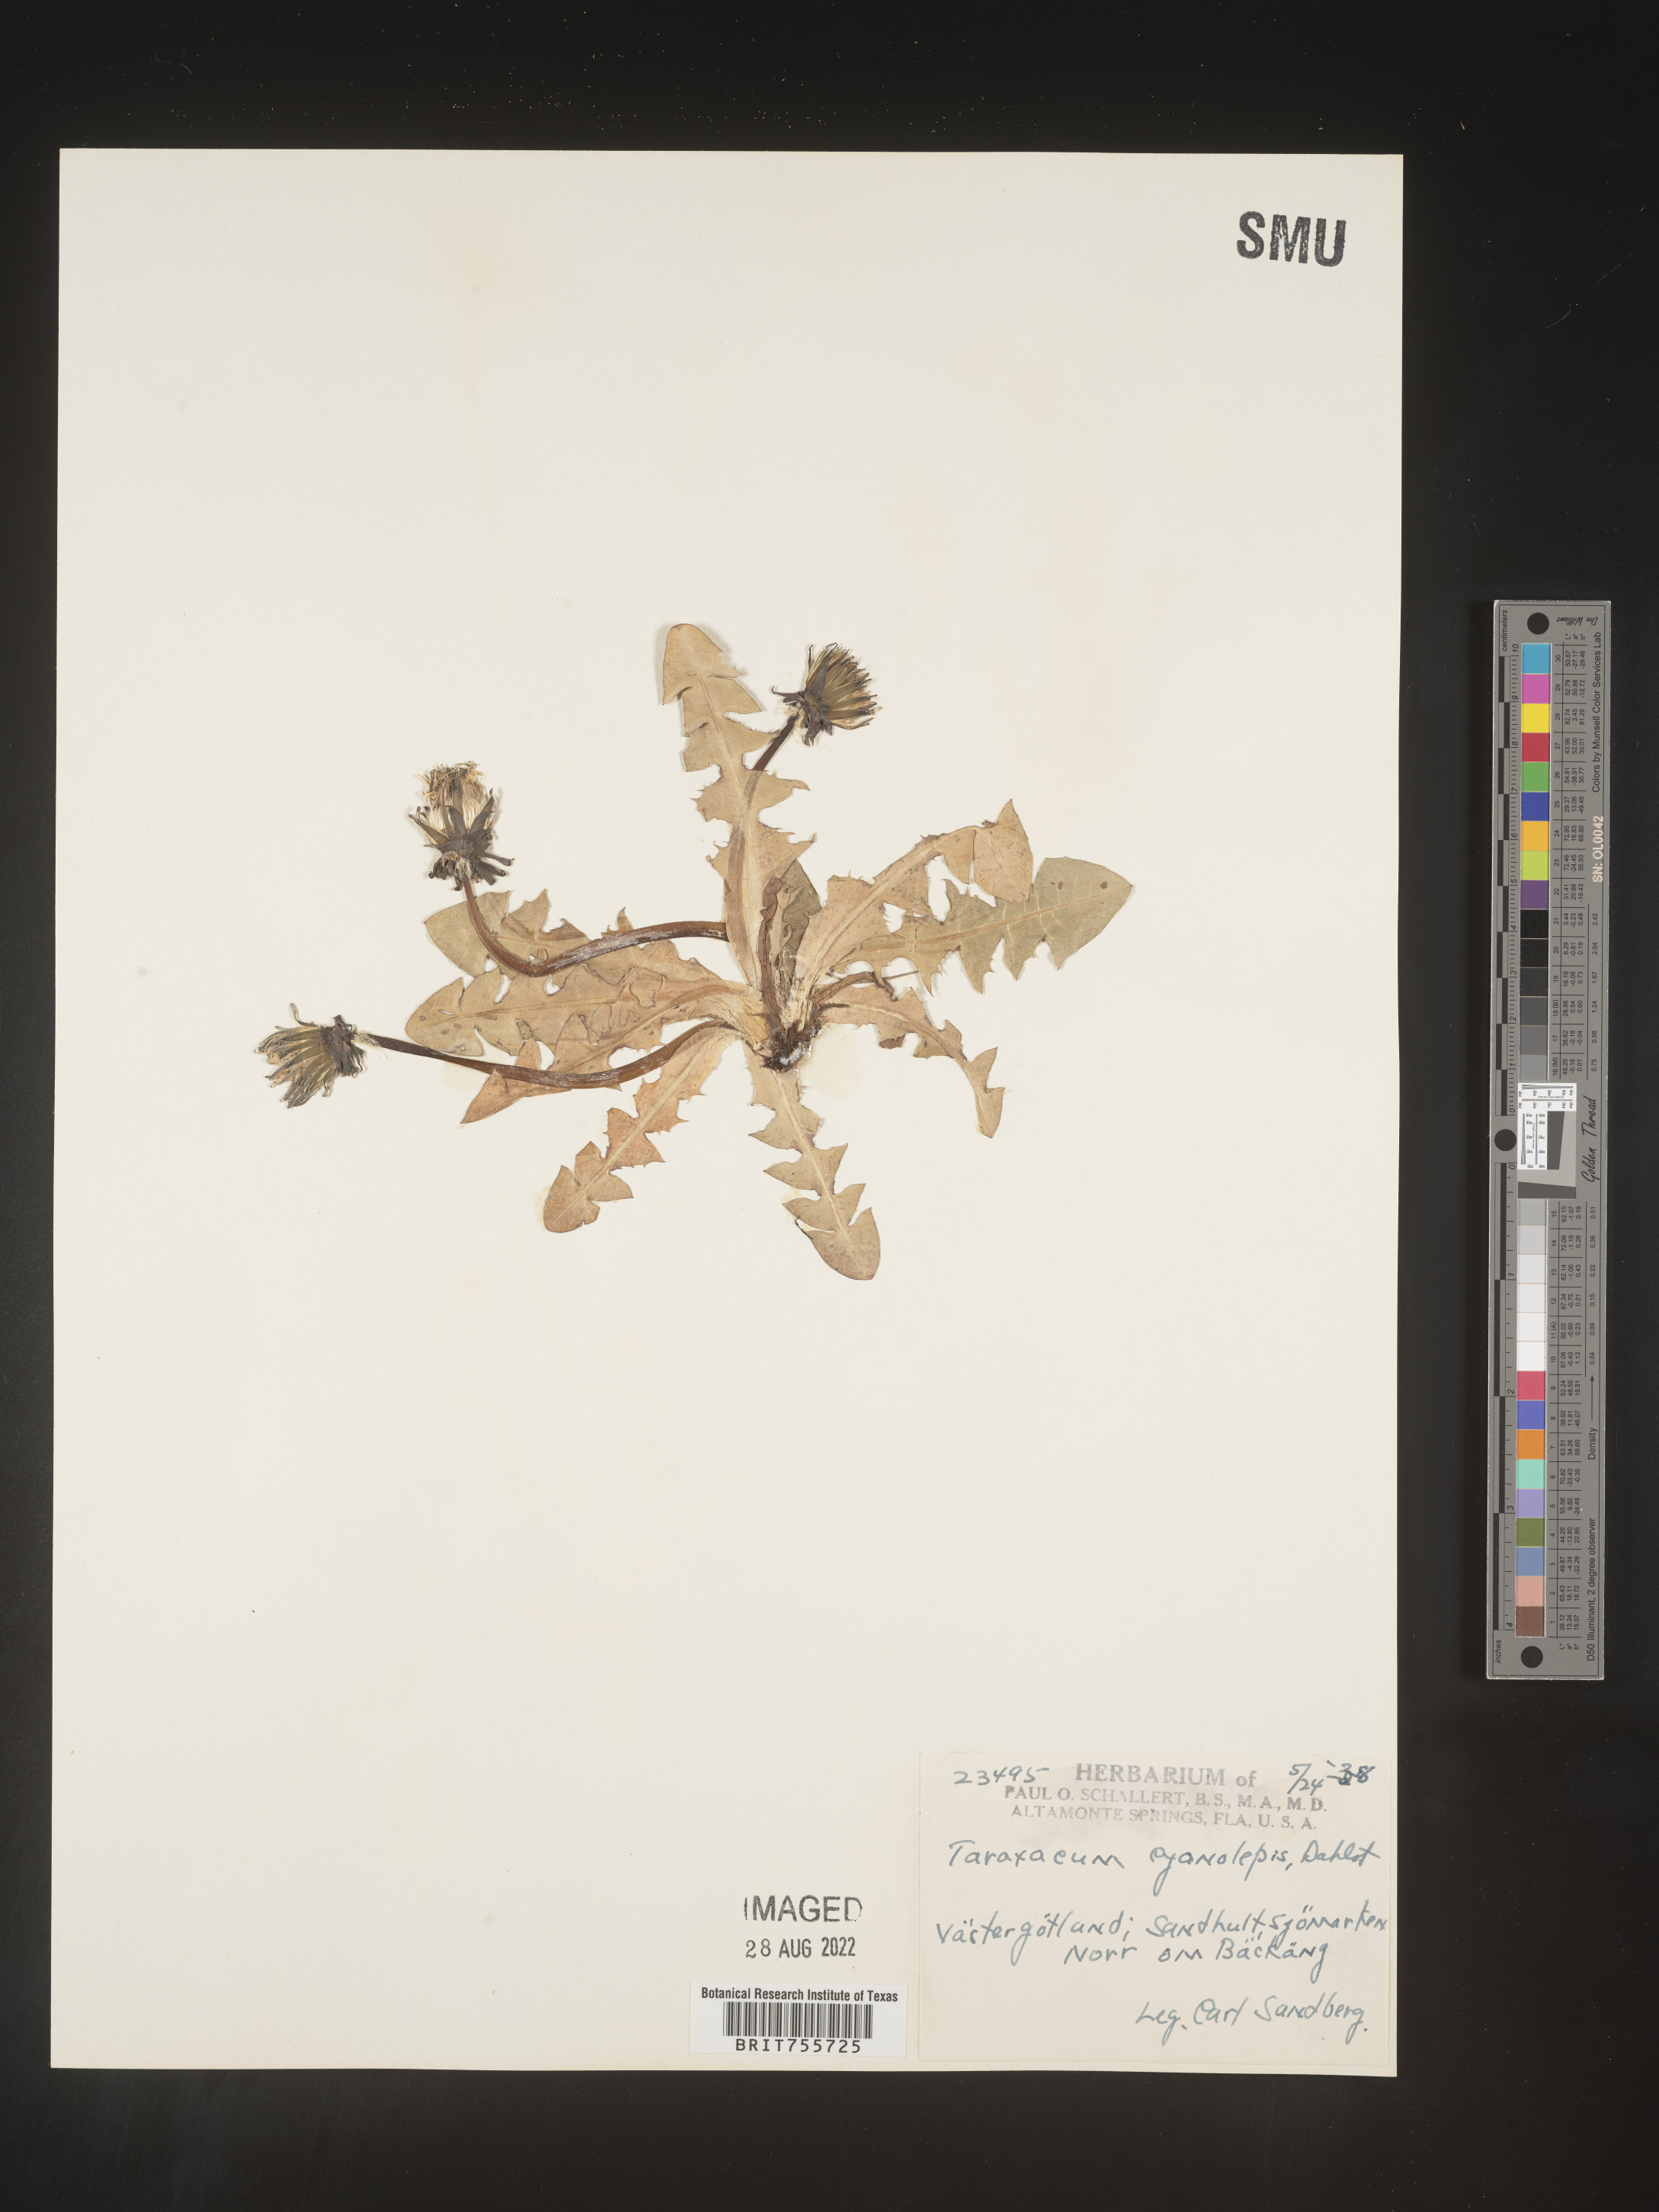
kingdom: Plantae
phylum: Tracheophyta
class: Magnoliopsida
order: Asterales
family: Asteraceae
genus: Taraxacum
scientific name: Taraxacum
